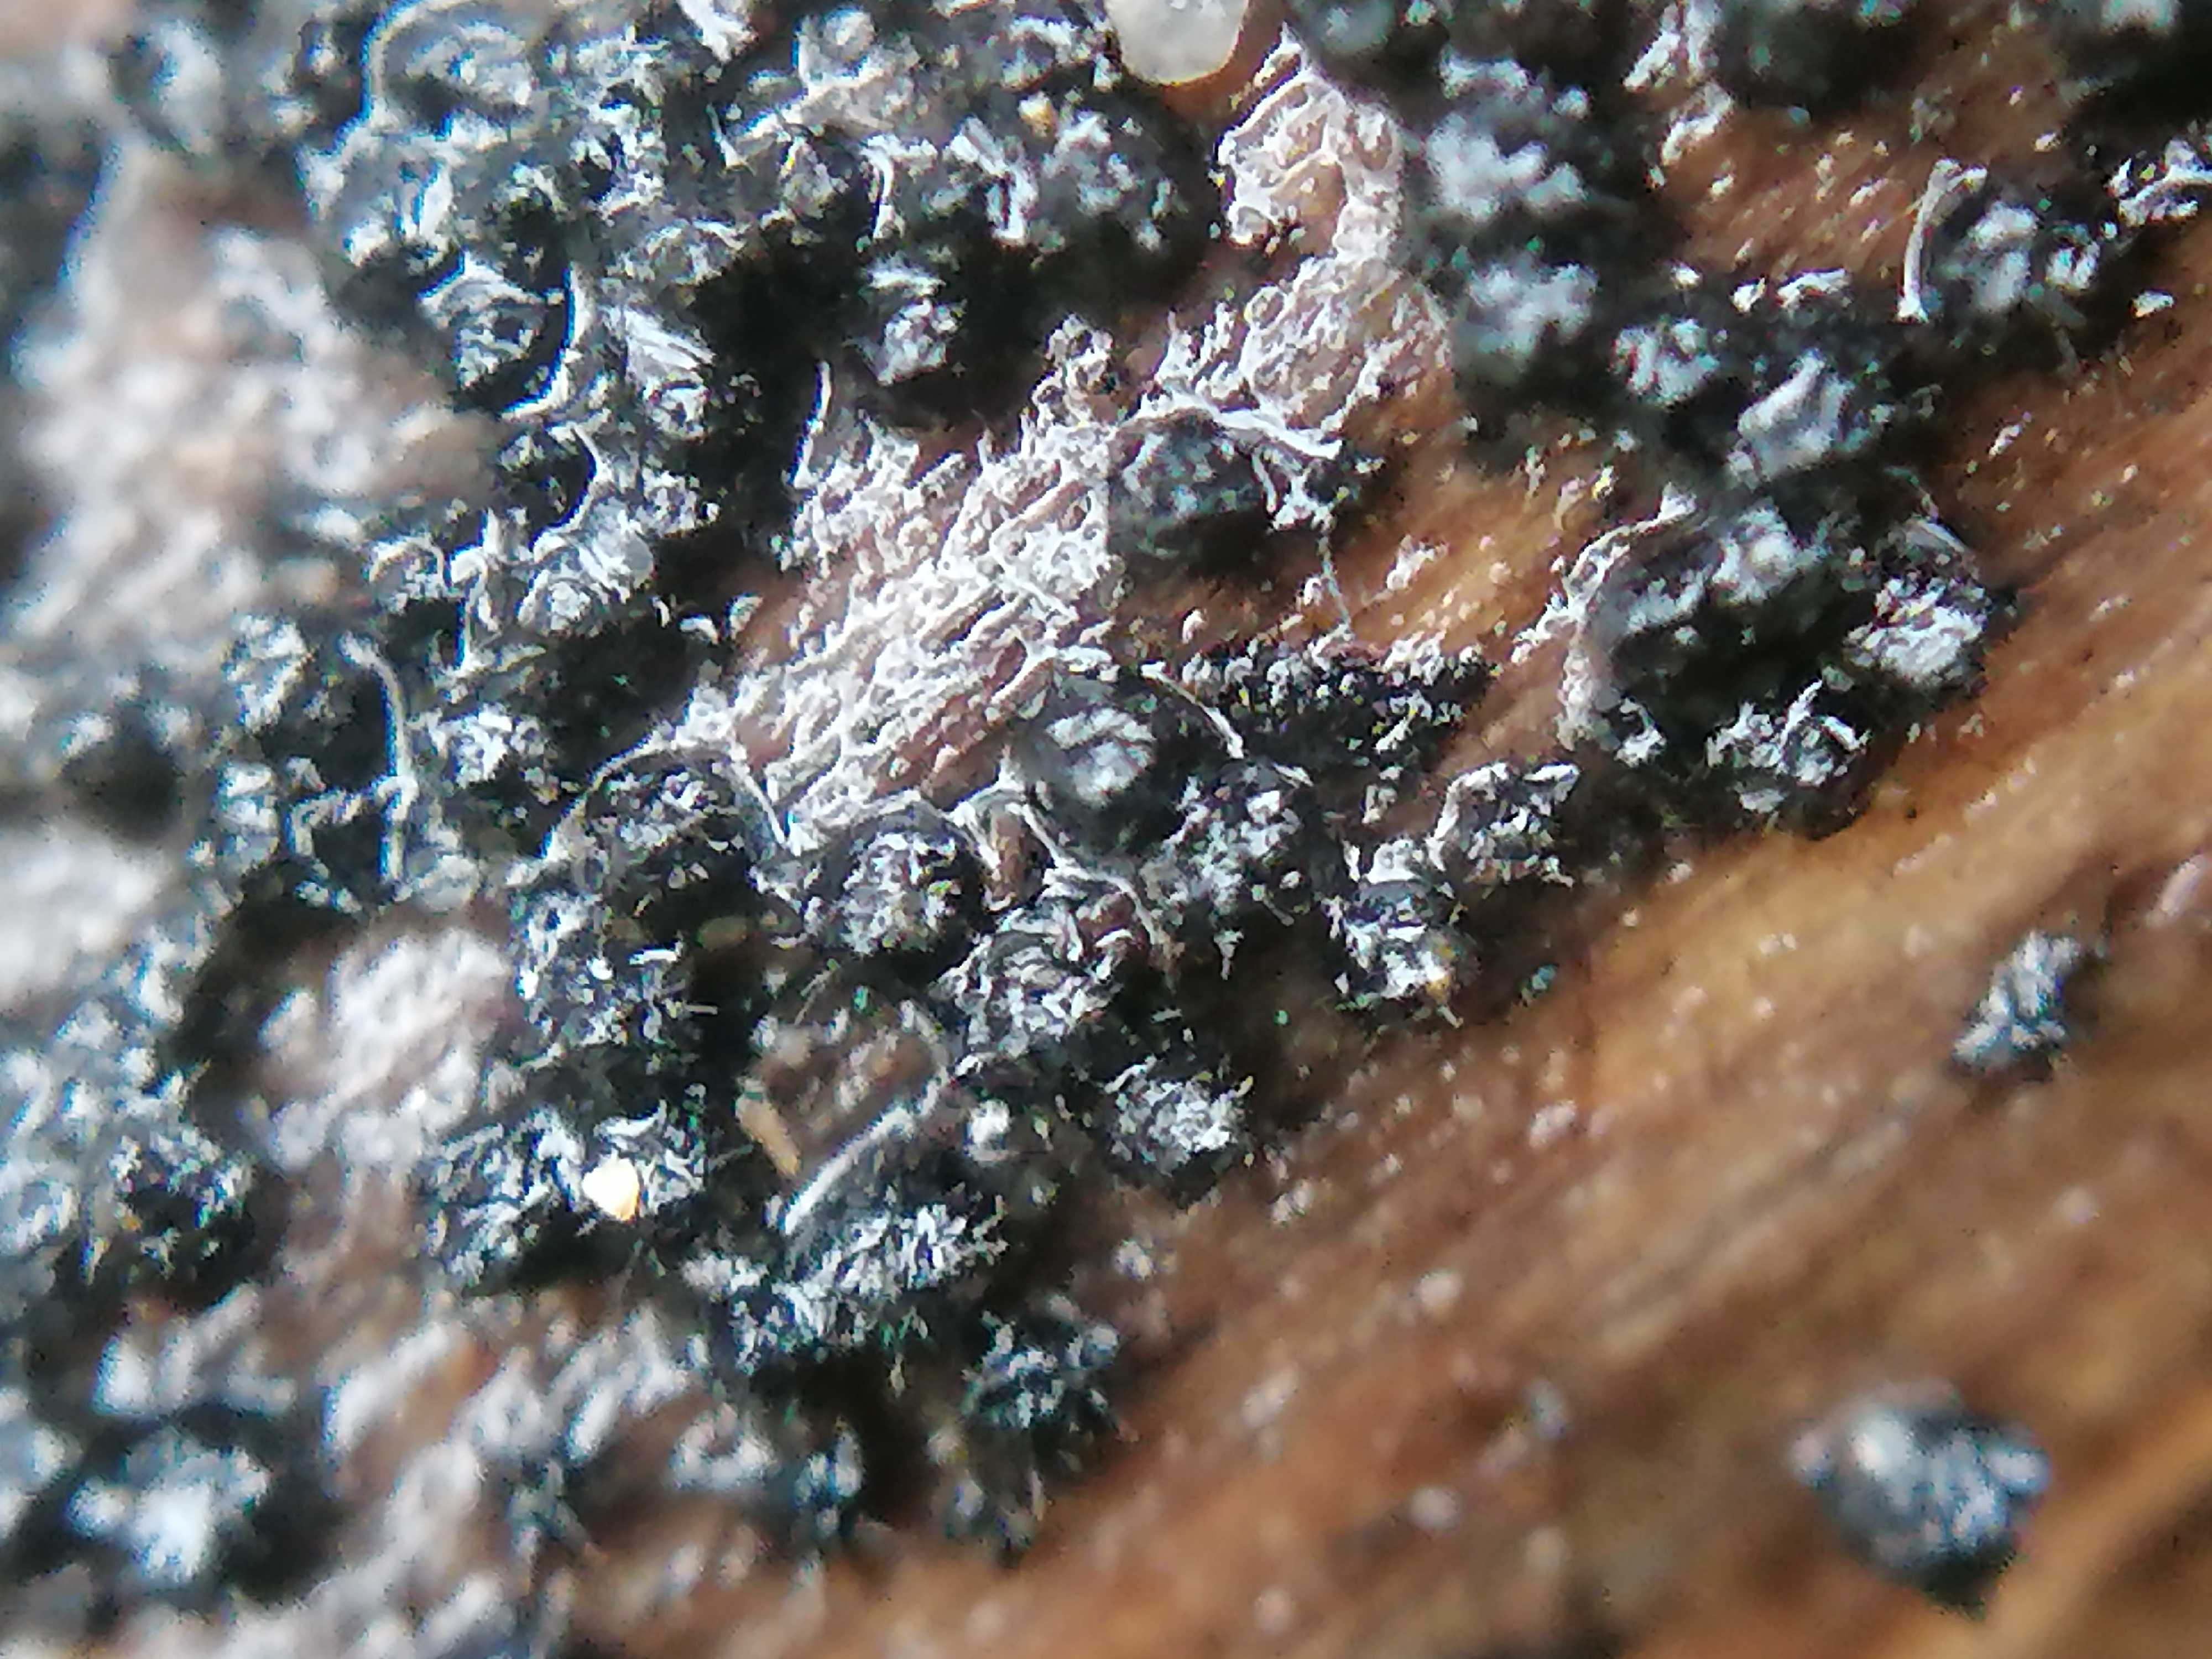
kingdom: Fungi
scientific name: Fungi
